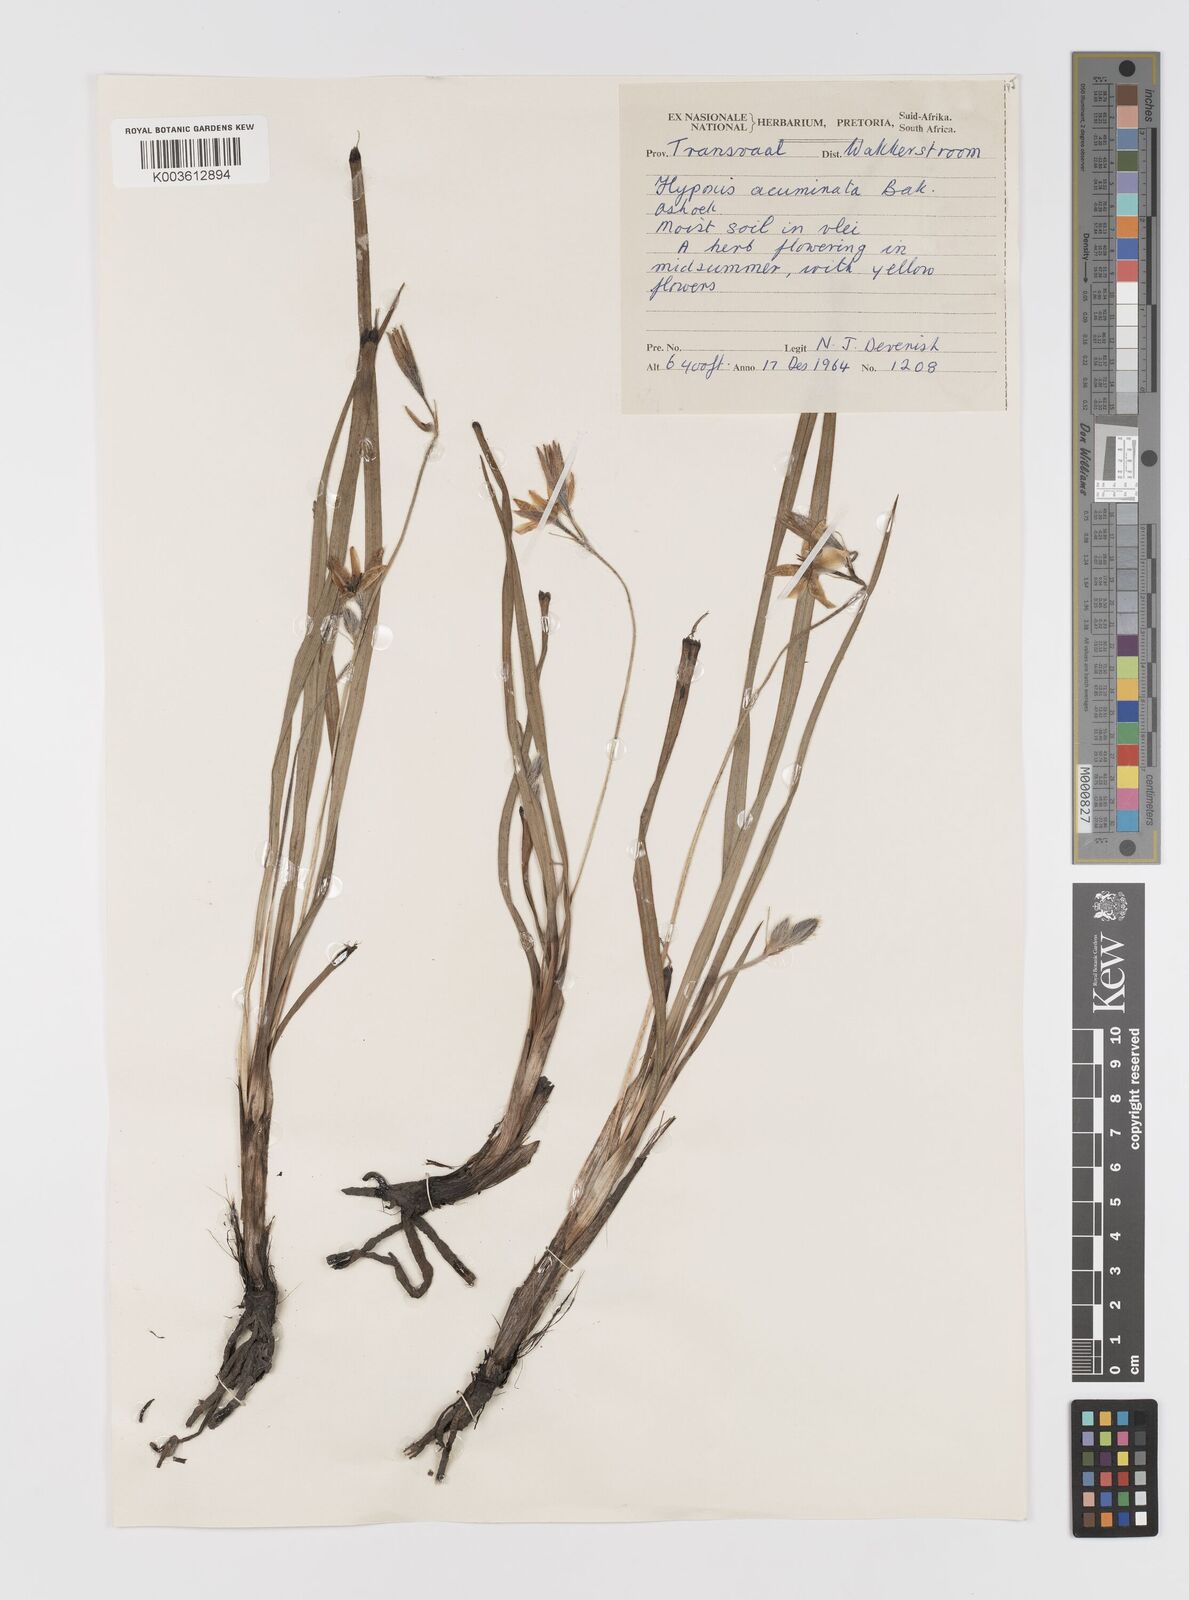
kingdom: Plantae
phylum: Tracheophyta
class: Liliopsida
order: Asparagales
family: Hypoxidaceae
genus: Hypoxis
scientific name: Hypoxis acuminata
